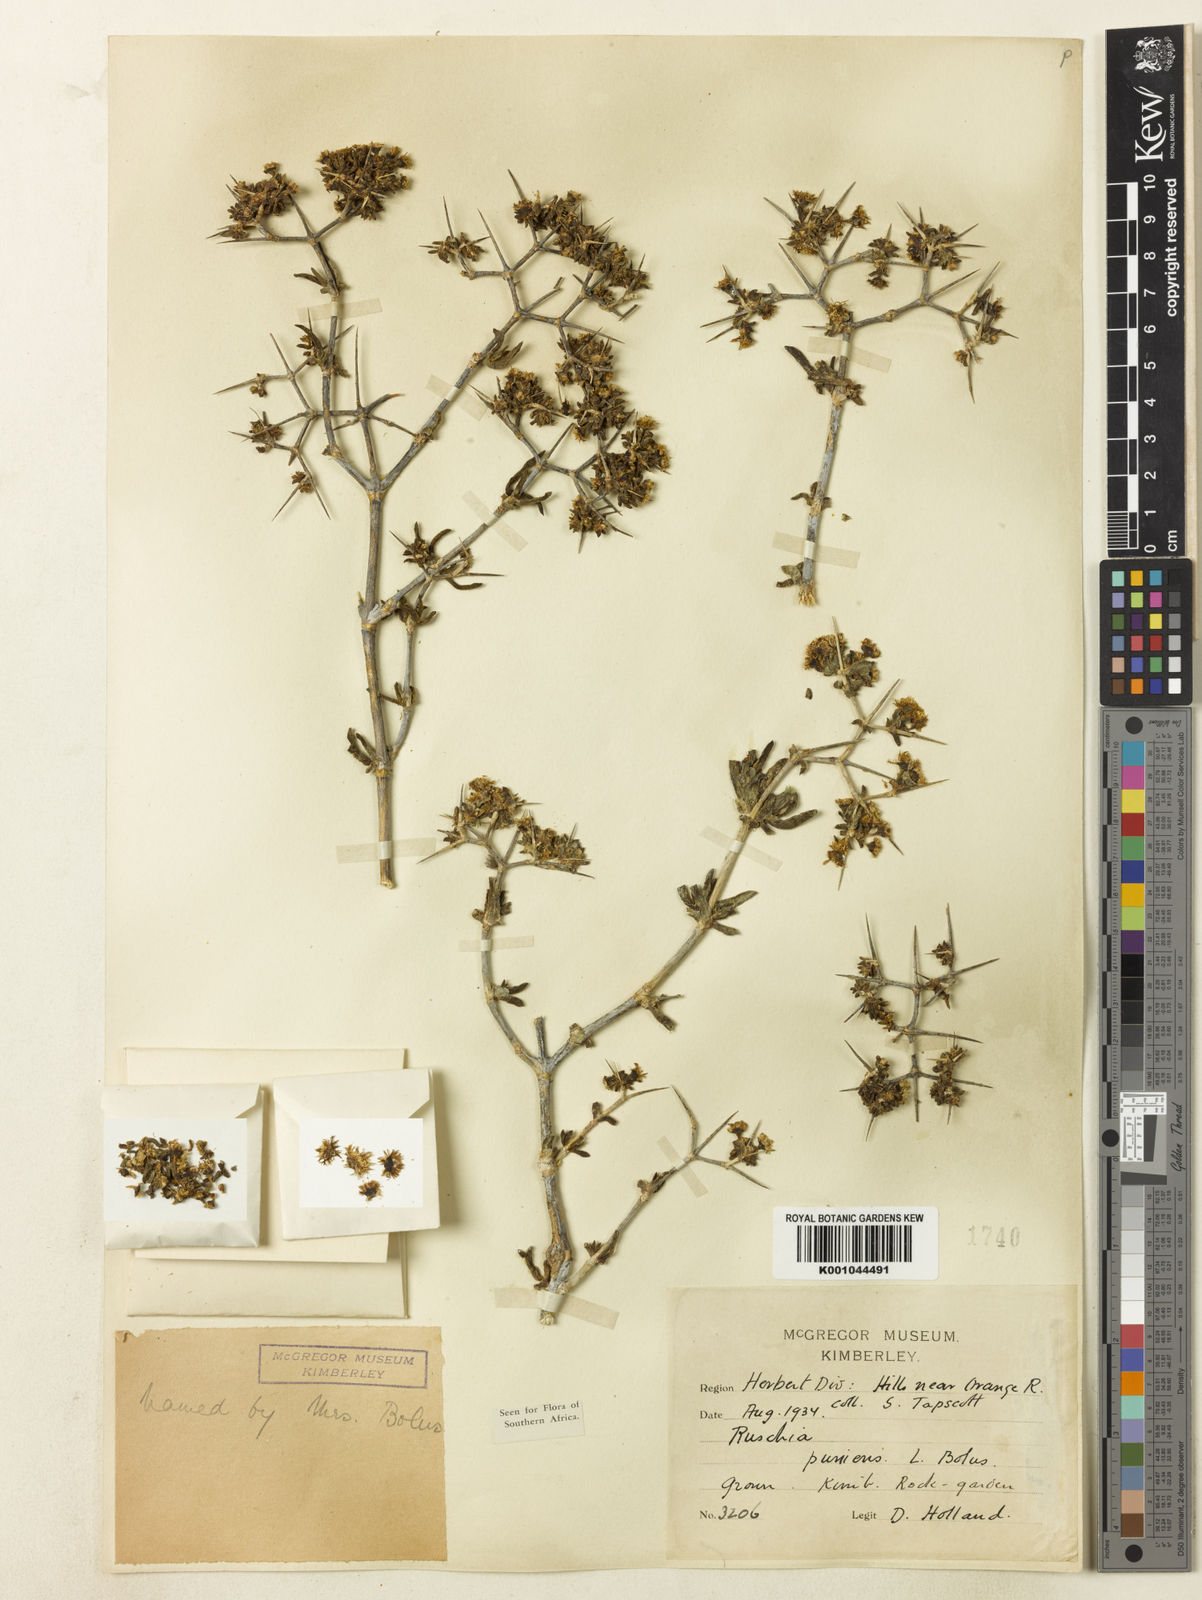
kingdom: Plantae
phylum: Tracheophyta
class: Magnoliopsida
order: Caryophyllales
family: Aizoaceae
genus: Ruschia
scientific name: Ruschia
